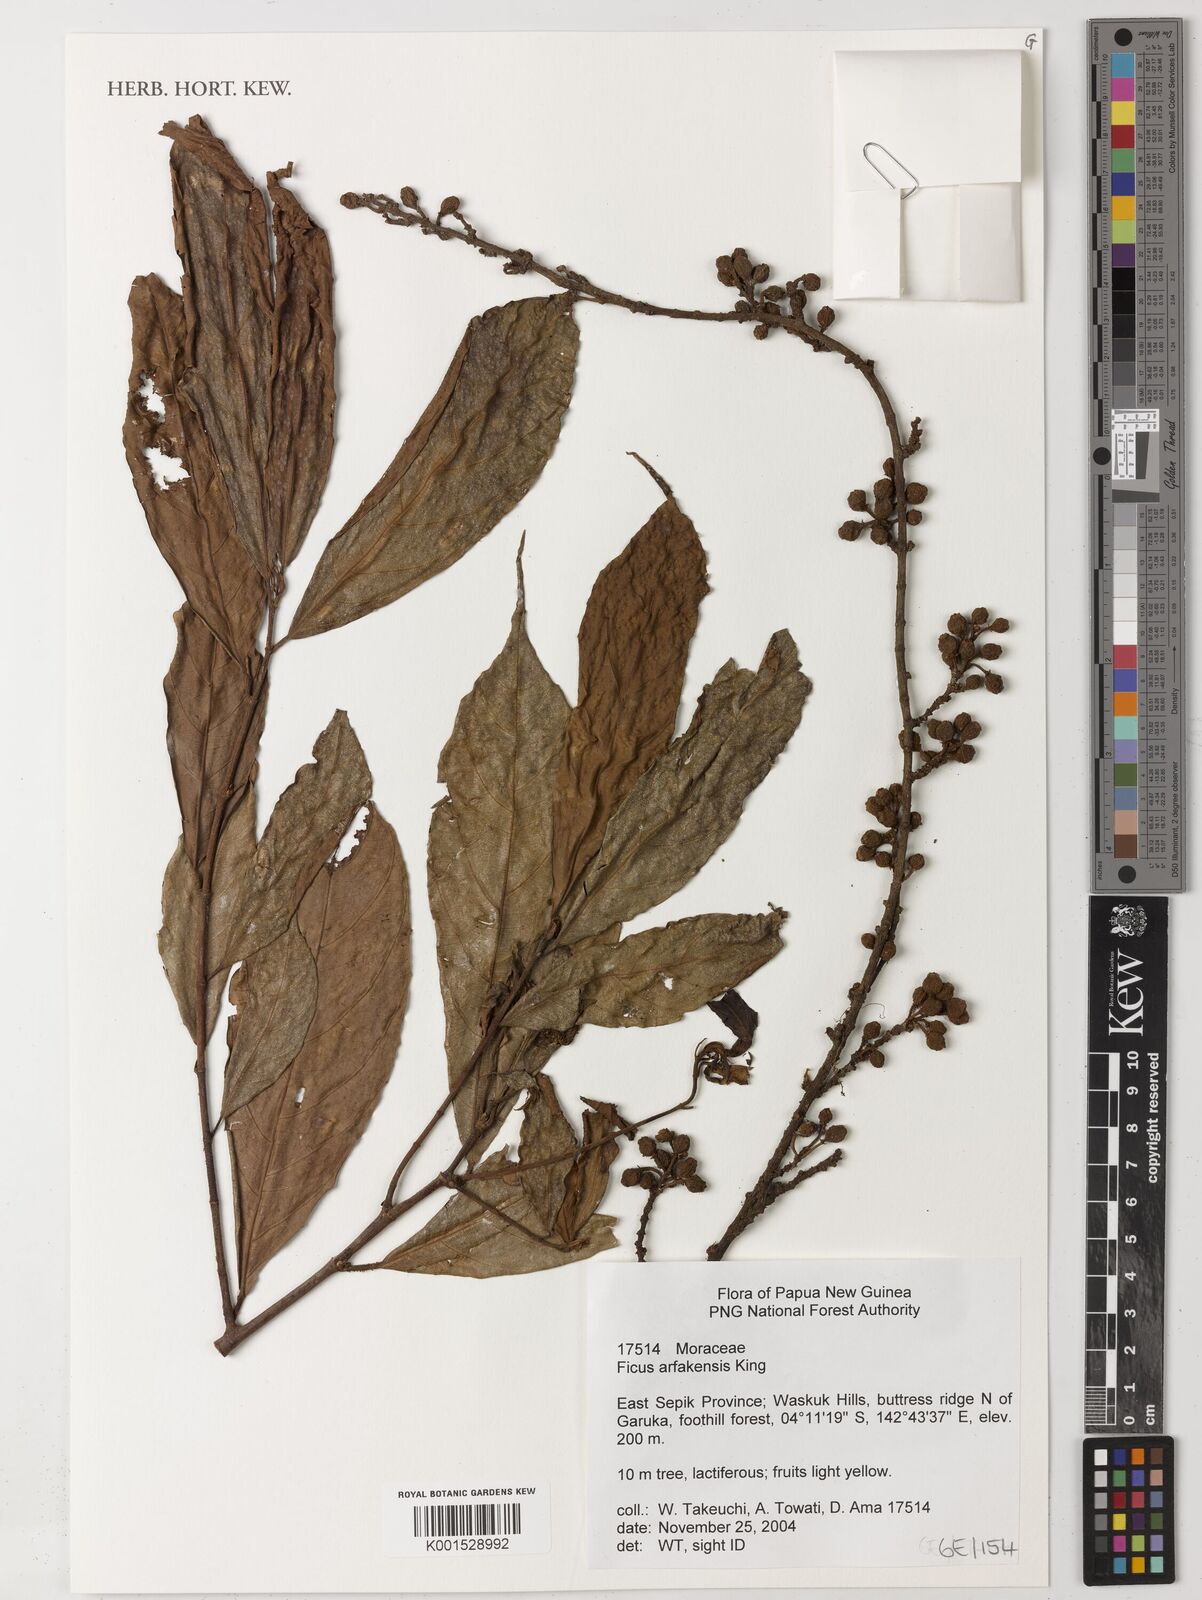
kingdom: Plantae
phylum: Tracheophyta
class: Magnoliopsida
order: Rosales
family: Moraceae
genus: Ficus
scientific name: Ficus ribes
